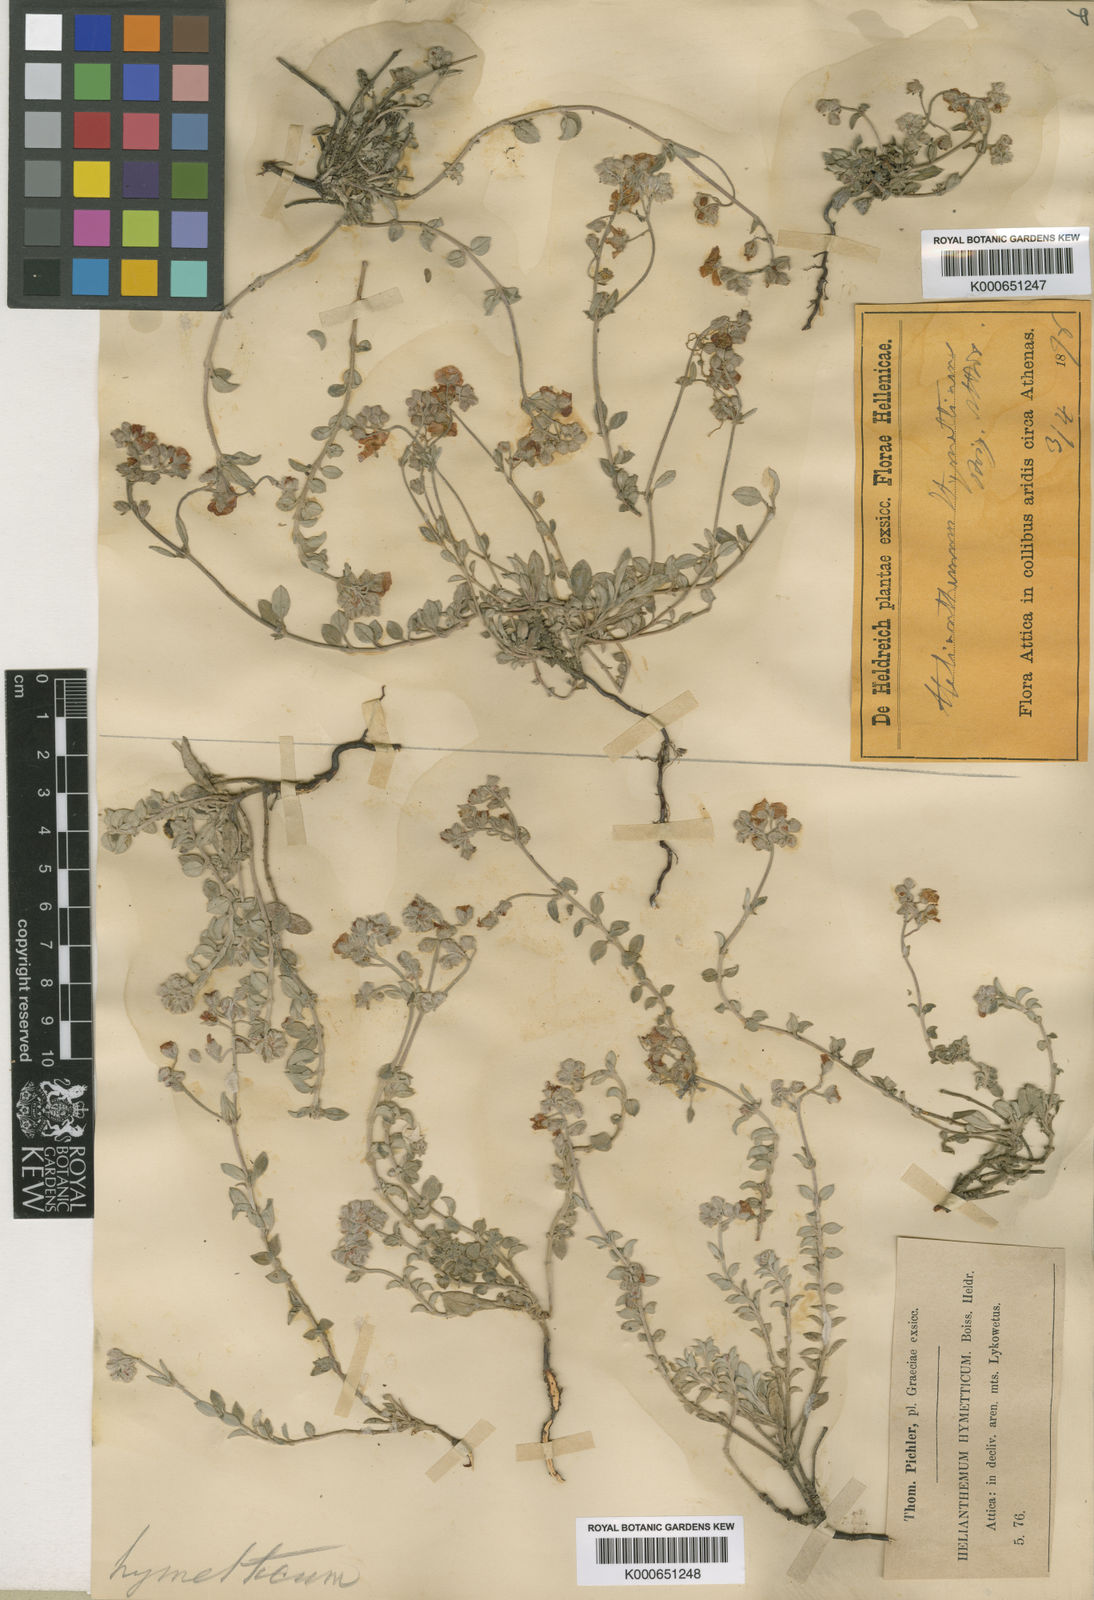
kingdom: Plantae
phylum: Tracheophyta
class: Magnoliopsida
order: Malvales
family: Cistaceae
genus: Helianthemum
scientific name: Helianthemum cinereum
